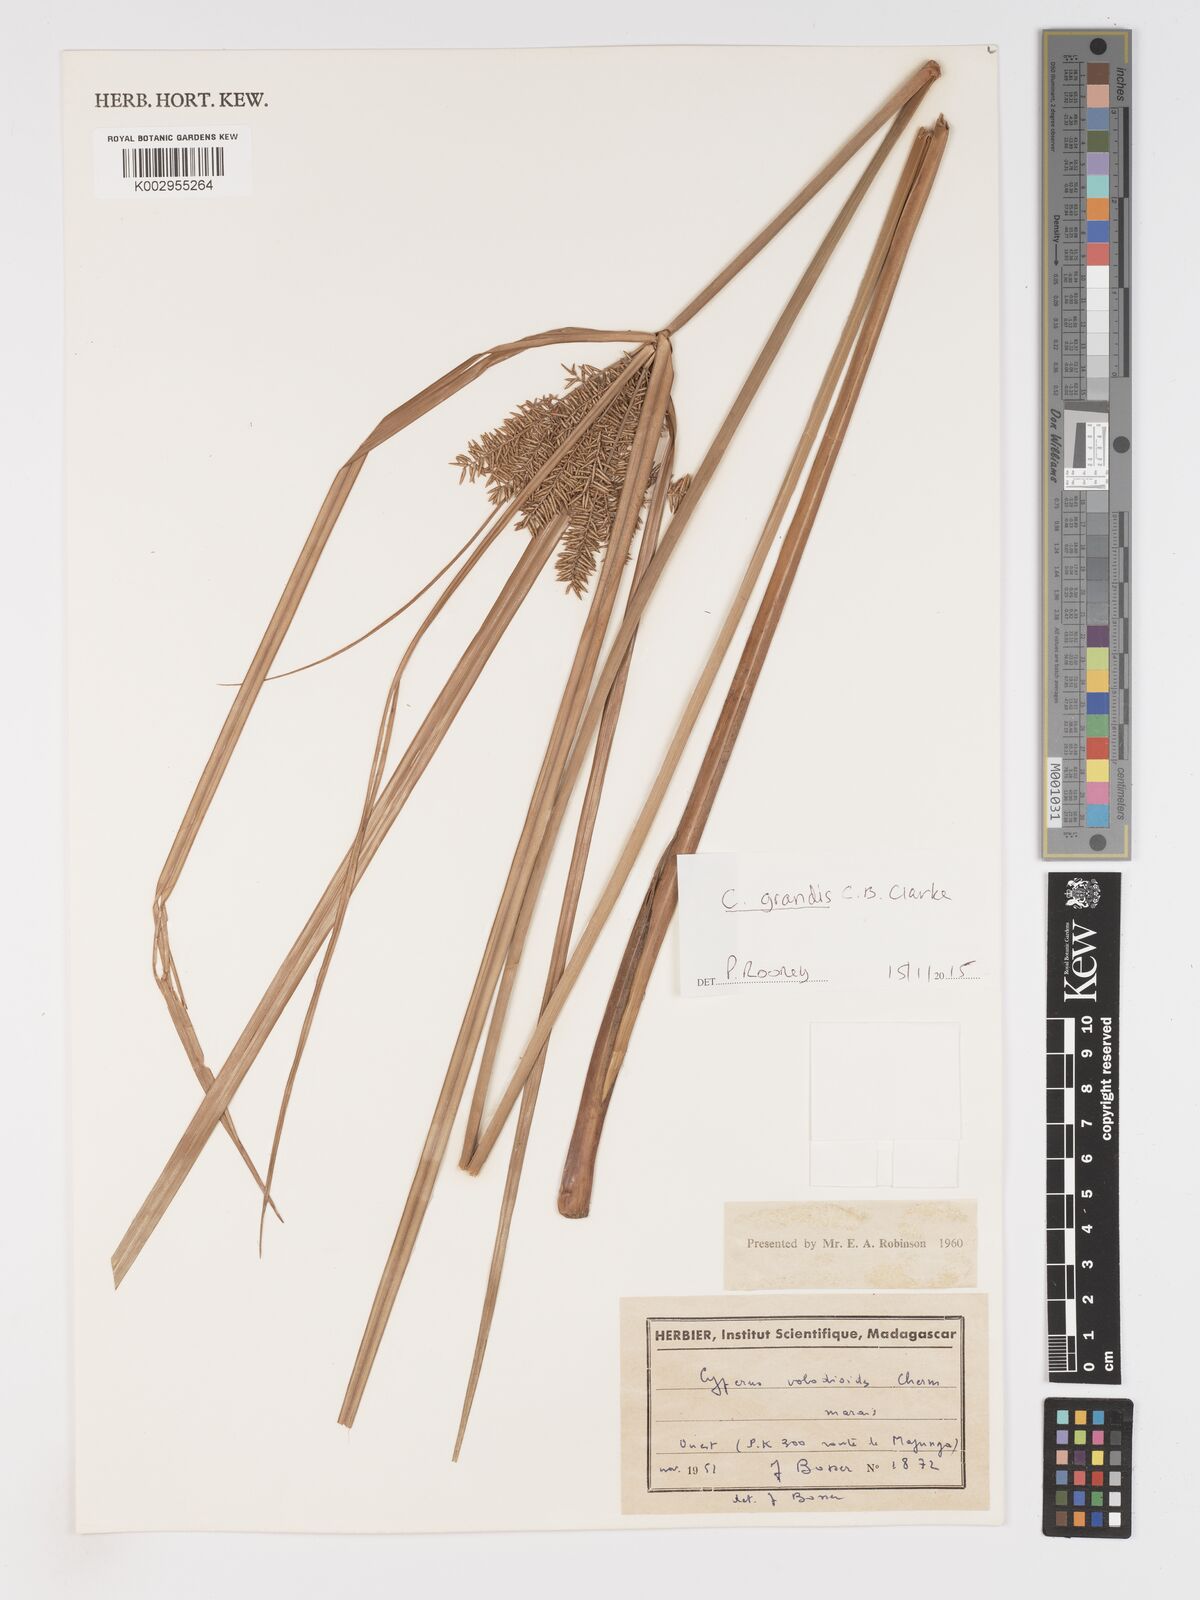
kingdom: Plantae
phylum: Tracheophyta
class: Liliopsida
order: Poales
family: Cyperaceae
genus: Cyperus
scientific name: Cyperus grandis
